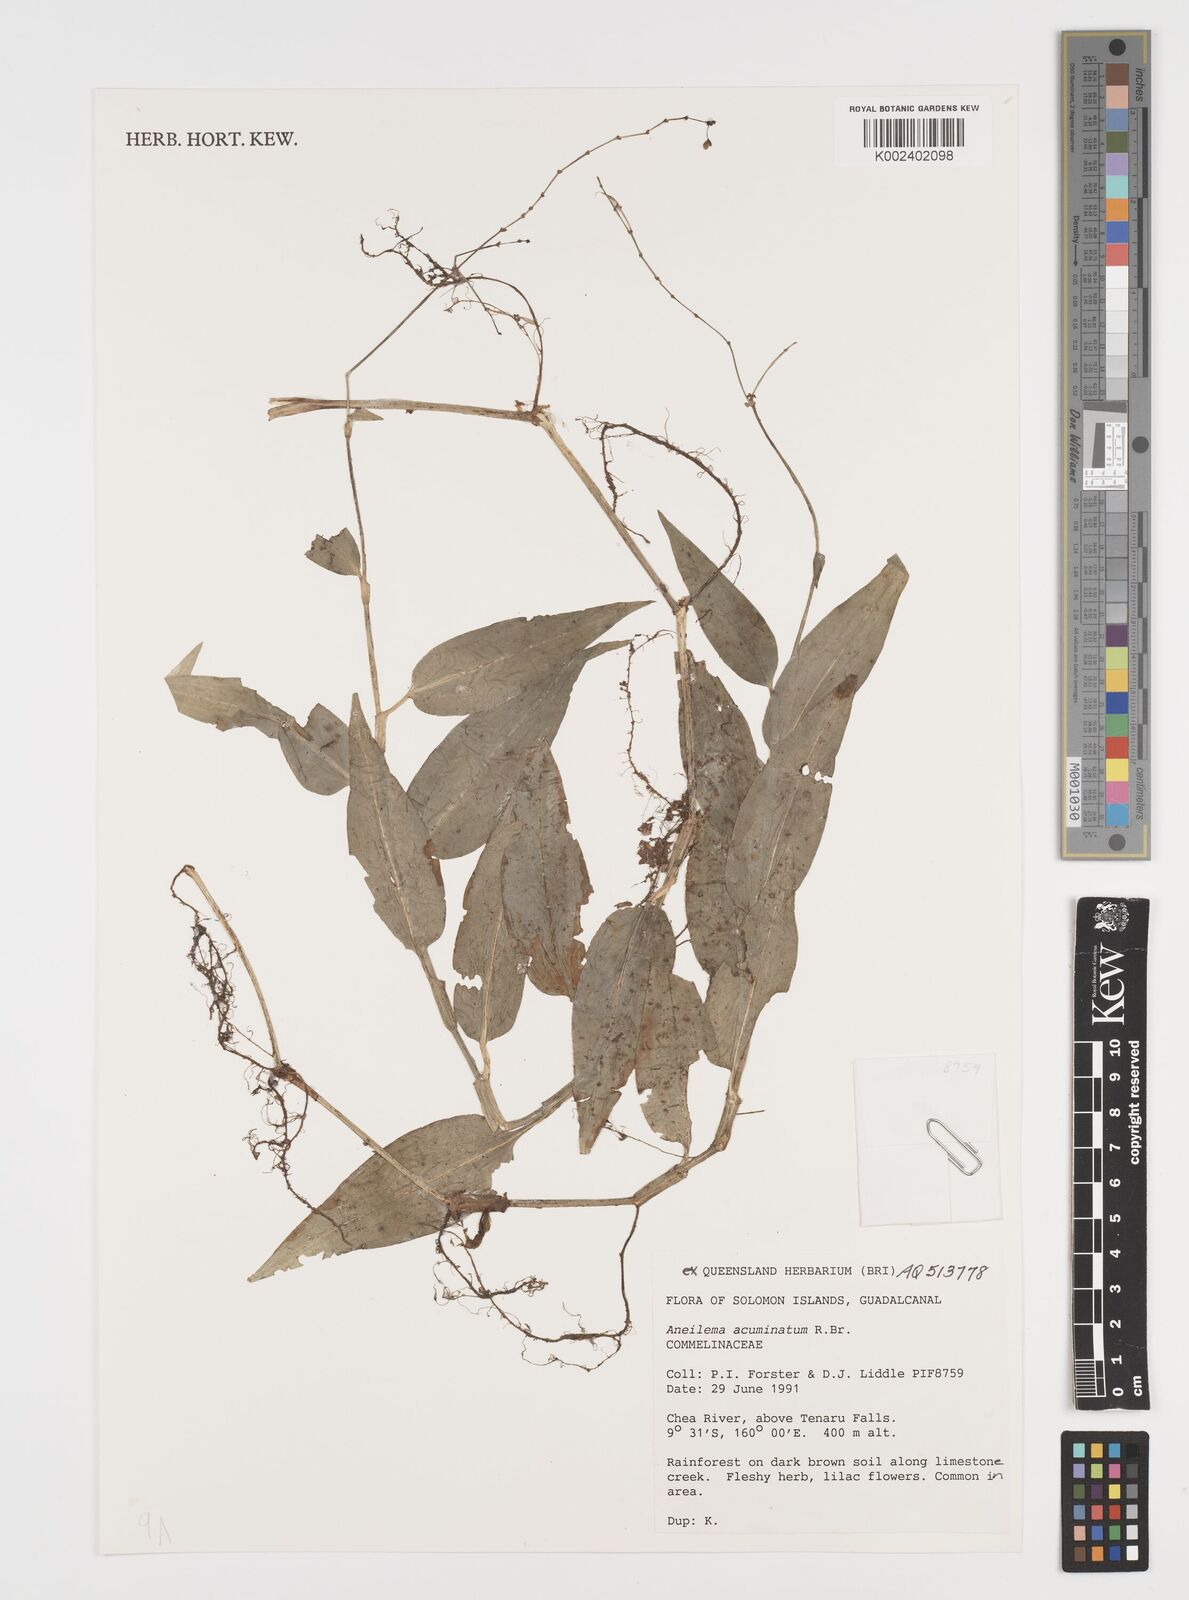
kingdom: Plantae
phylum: Tracheophyta
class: Liliopsida
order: Commelinales
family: Commelinaceae
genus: Aneilema
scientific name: Aneilema acuminatum
